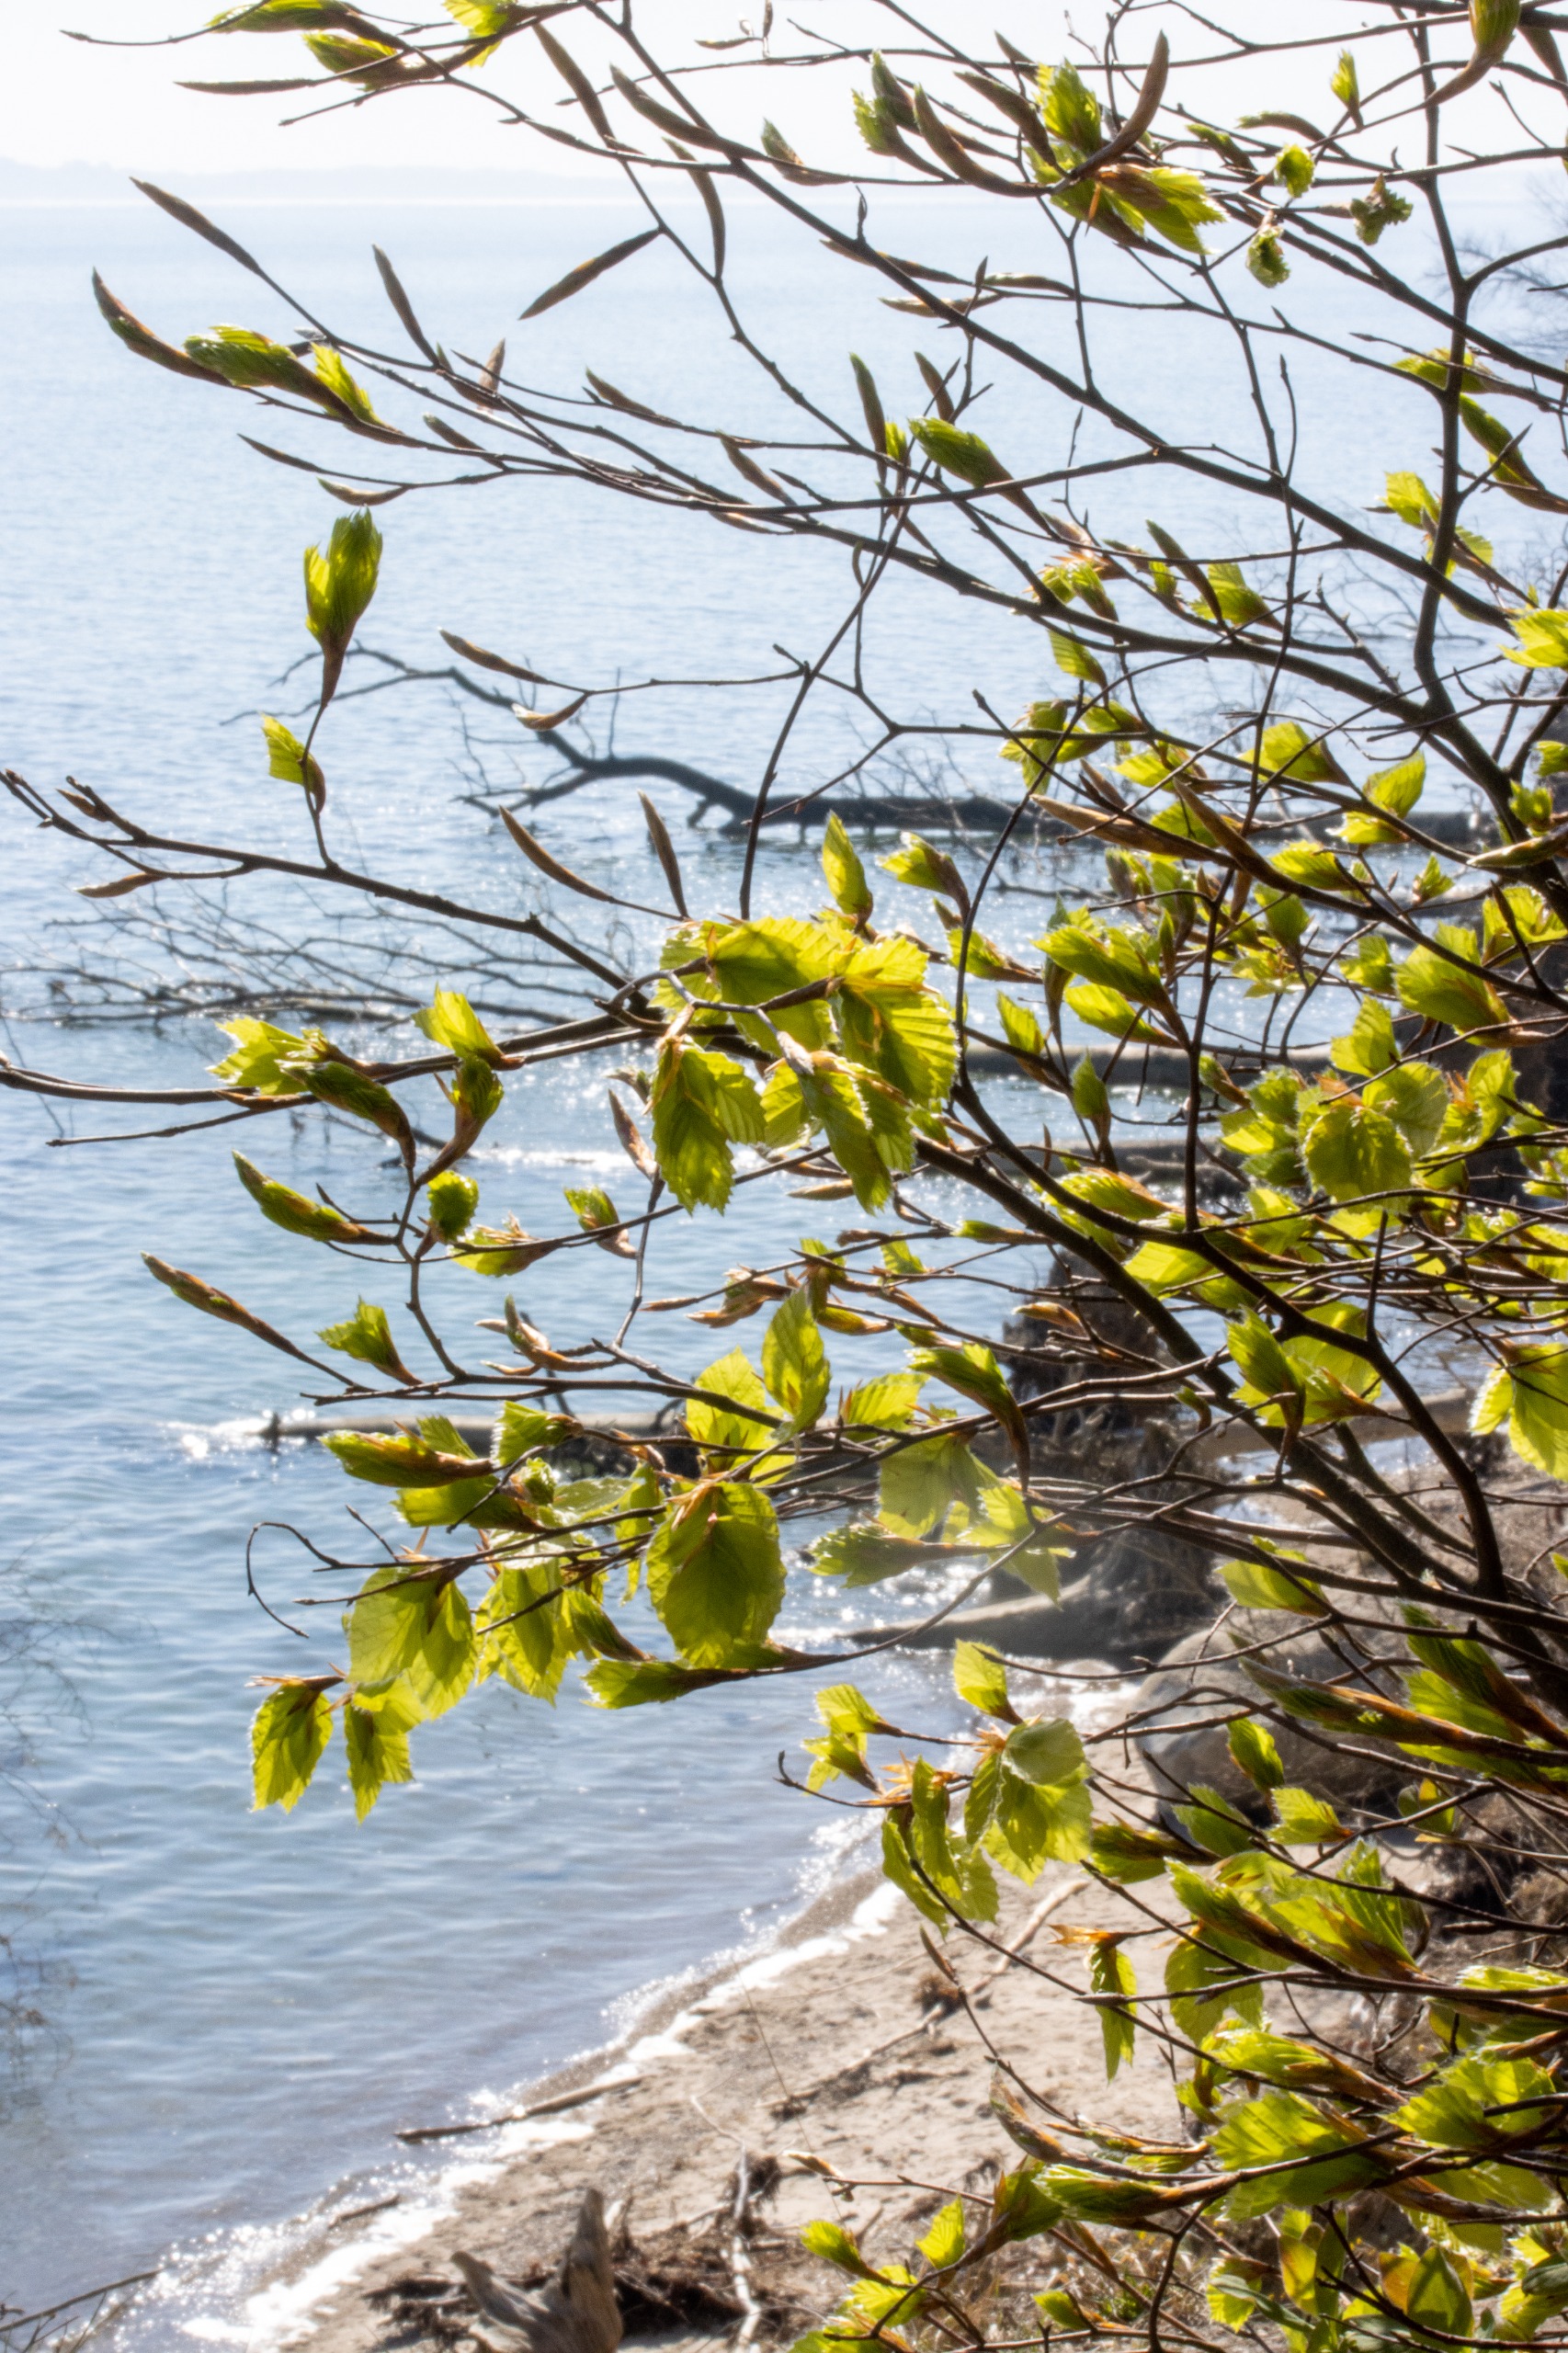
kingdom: Plantae
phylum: Tracheophyta
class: Magnoliopsida
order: Fagales
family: Fagaceae
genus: Fagus
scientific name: Fagus sylvatica
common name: Bøg
